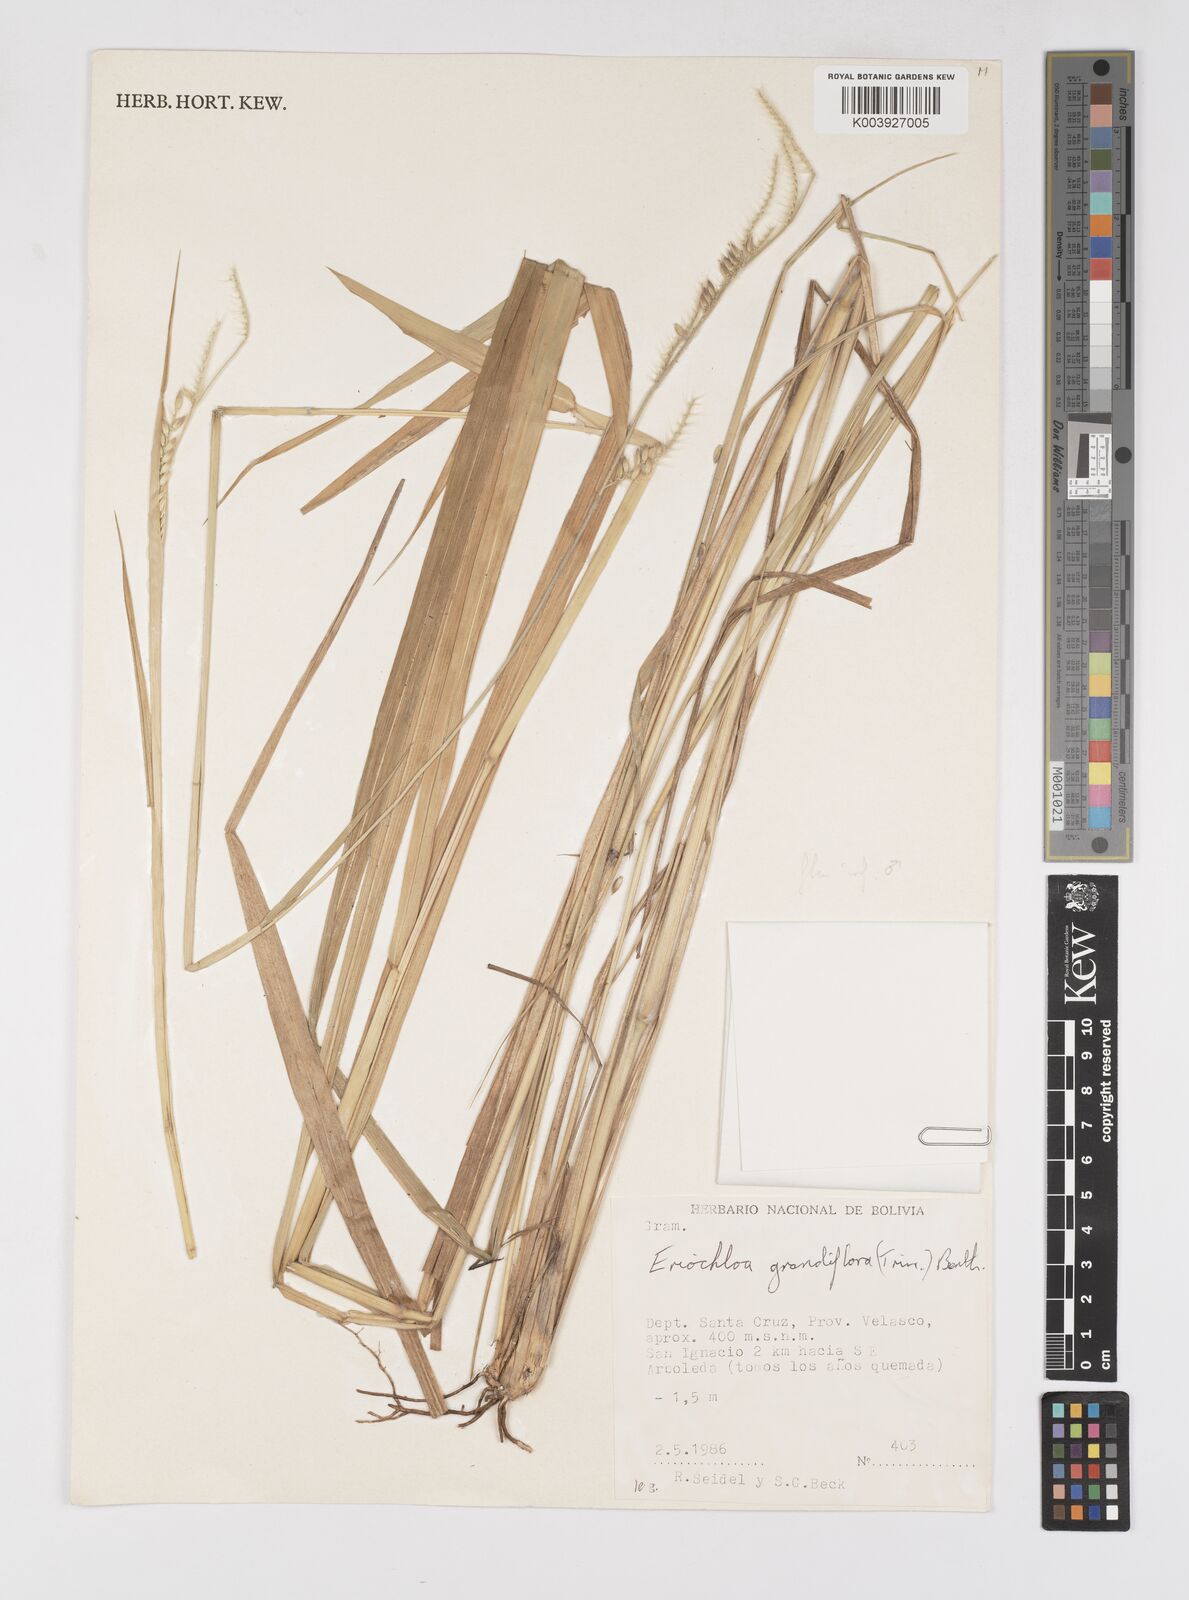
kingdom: Plantae
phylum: Tracheophyta
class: Liliopsida
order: Poales
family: Poaceae
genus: Eriochloa
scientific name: Eriochloa grandiflora
